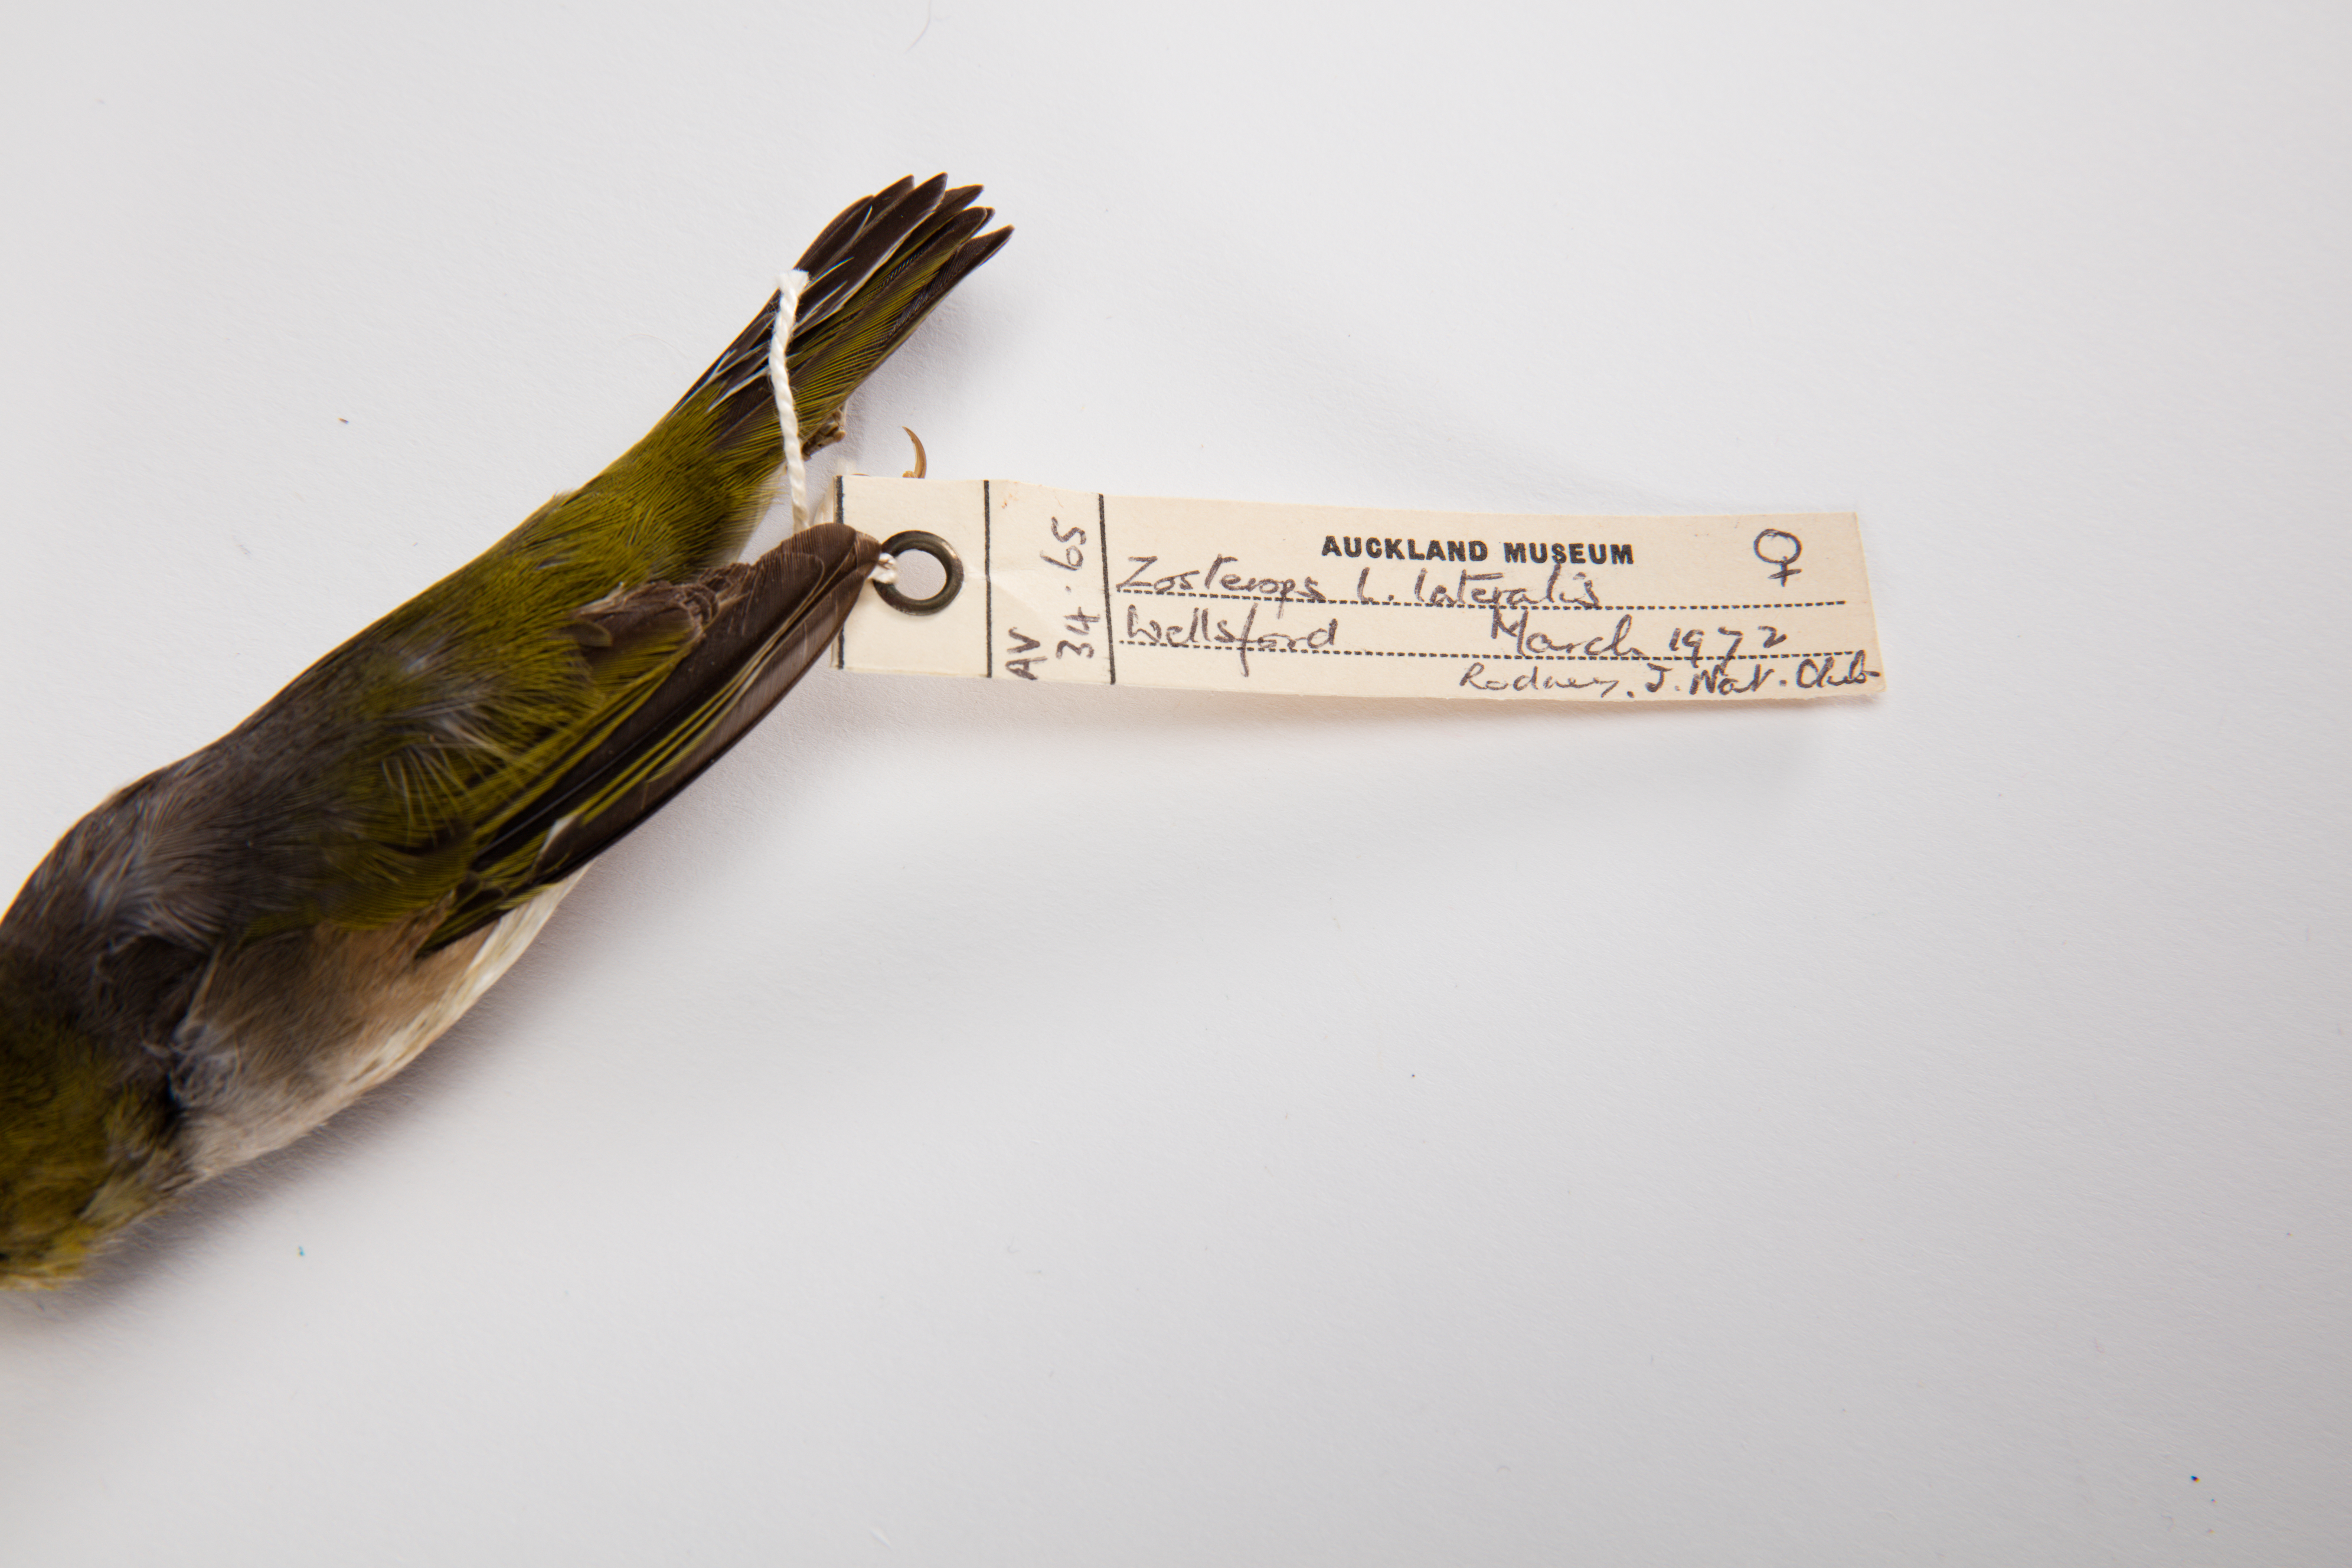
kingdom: Animalia
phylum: Chordata
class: Aves
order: Passeriformes
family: Zosteropidae
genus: Zosterops
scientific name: Zosterops lateralis
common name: Silvereye
